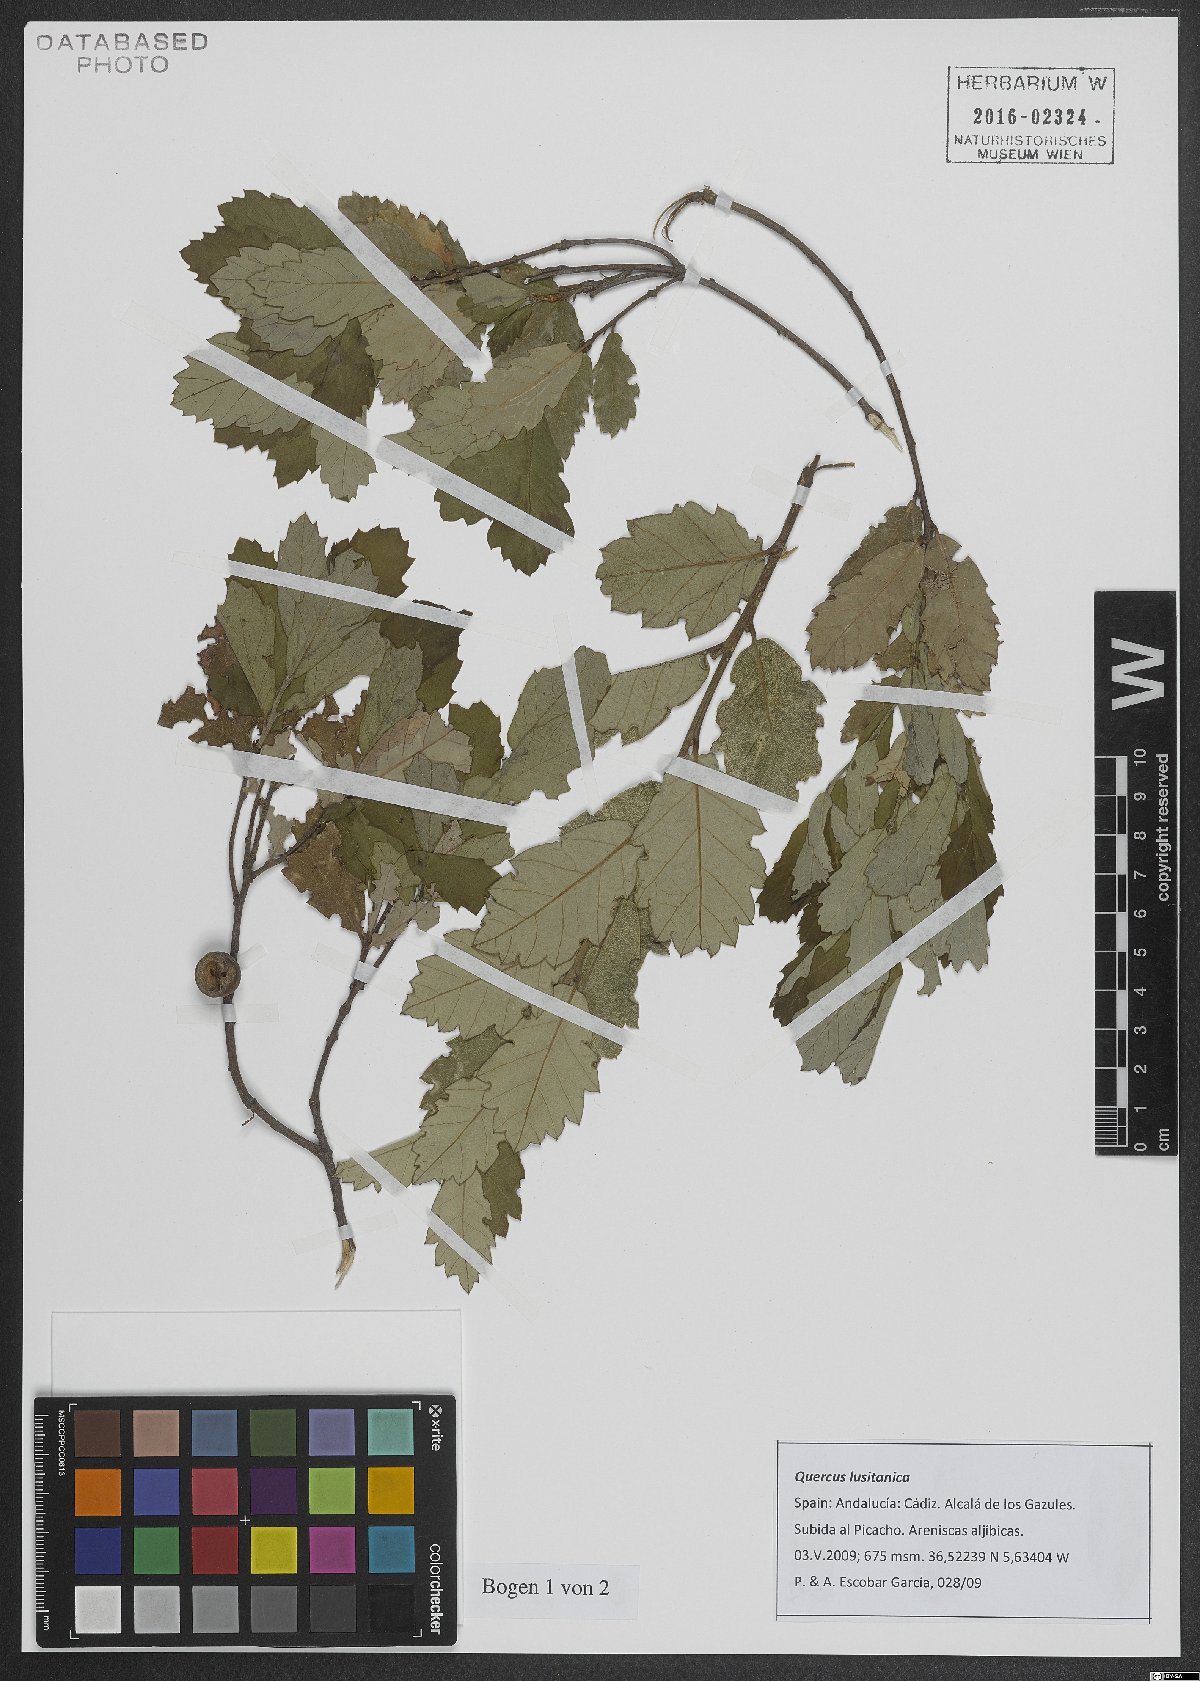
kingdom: Plantae
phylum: Tracheophyta
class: Magnoliopsida
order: Fagales
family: Fagaceae
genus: Quercus
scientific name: Quercus lusitanica
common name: Scrub gall oak
